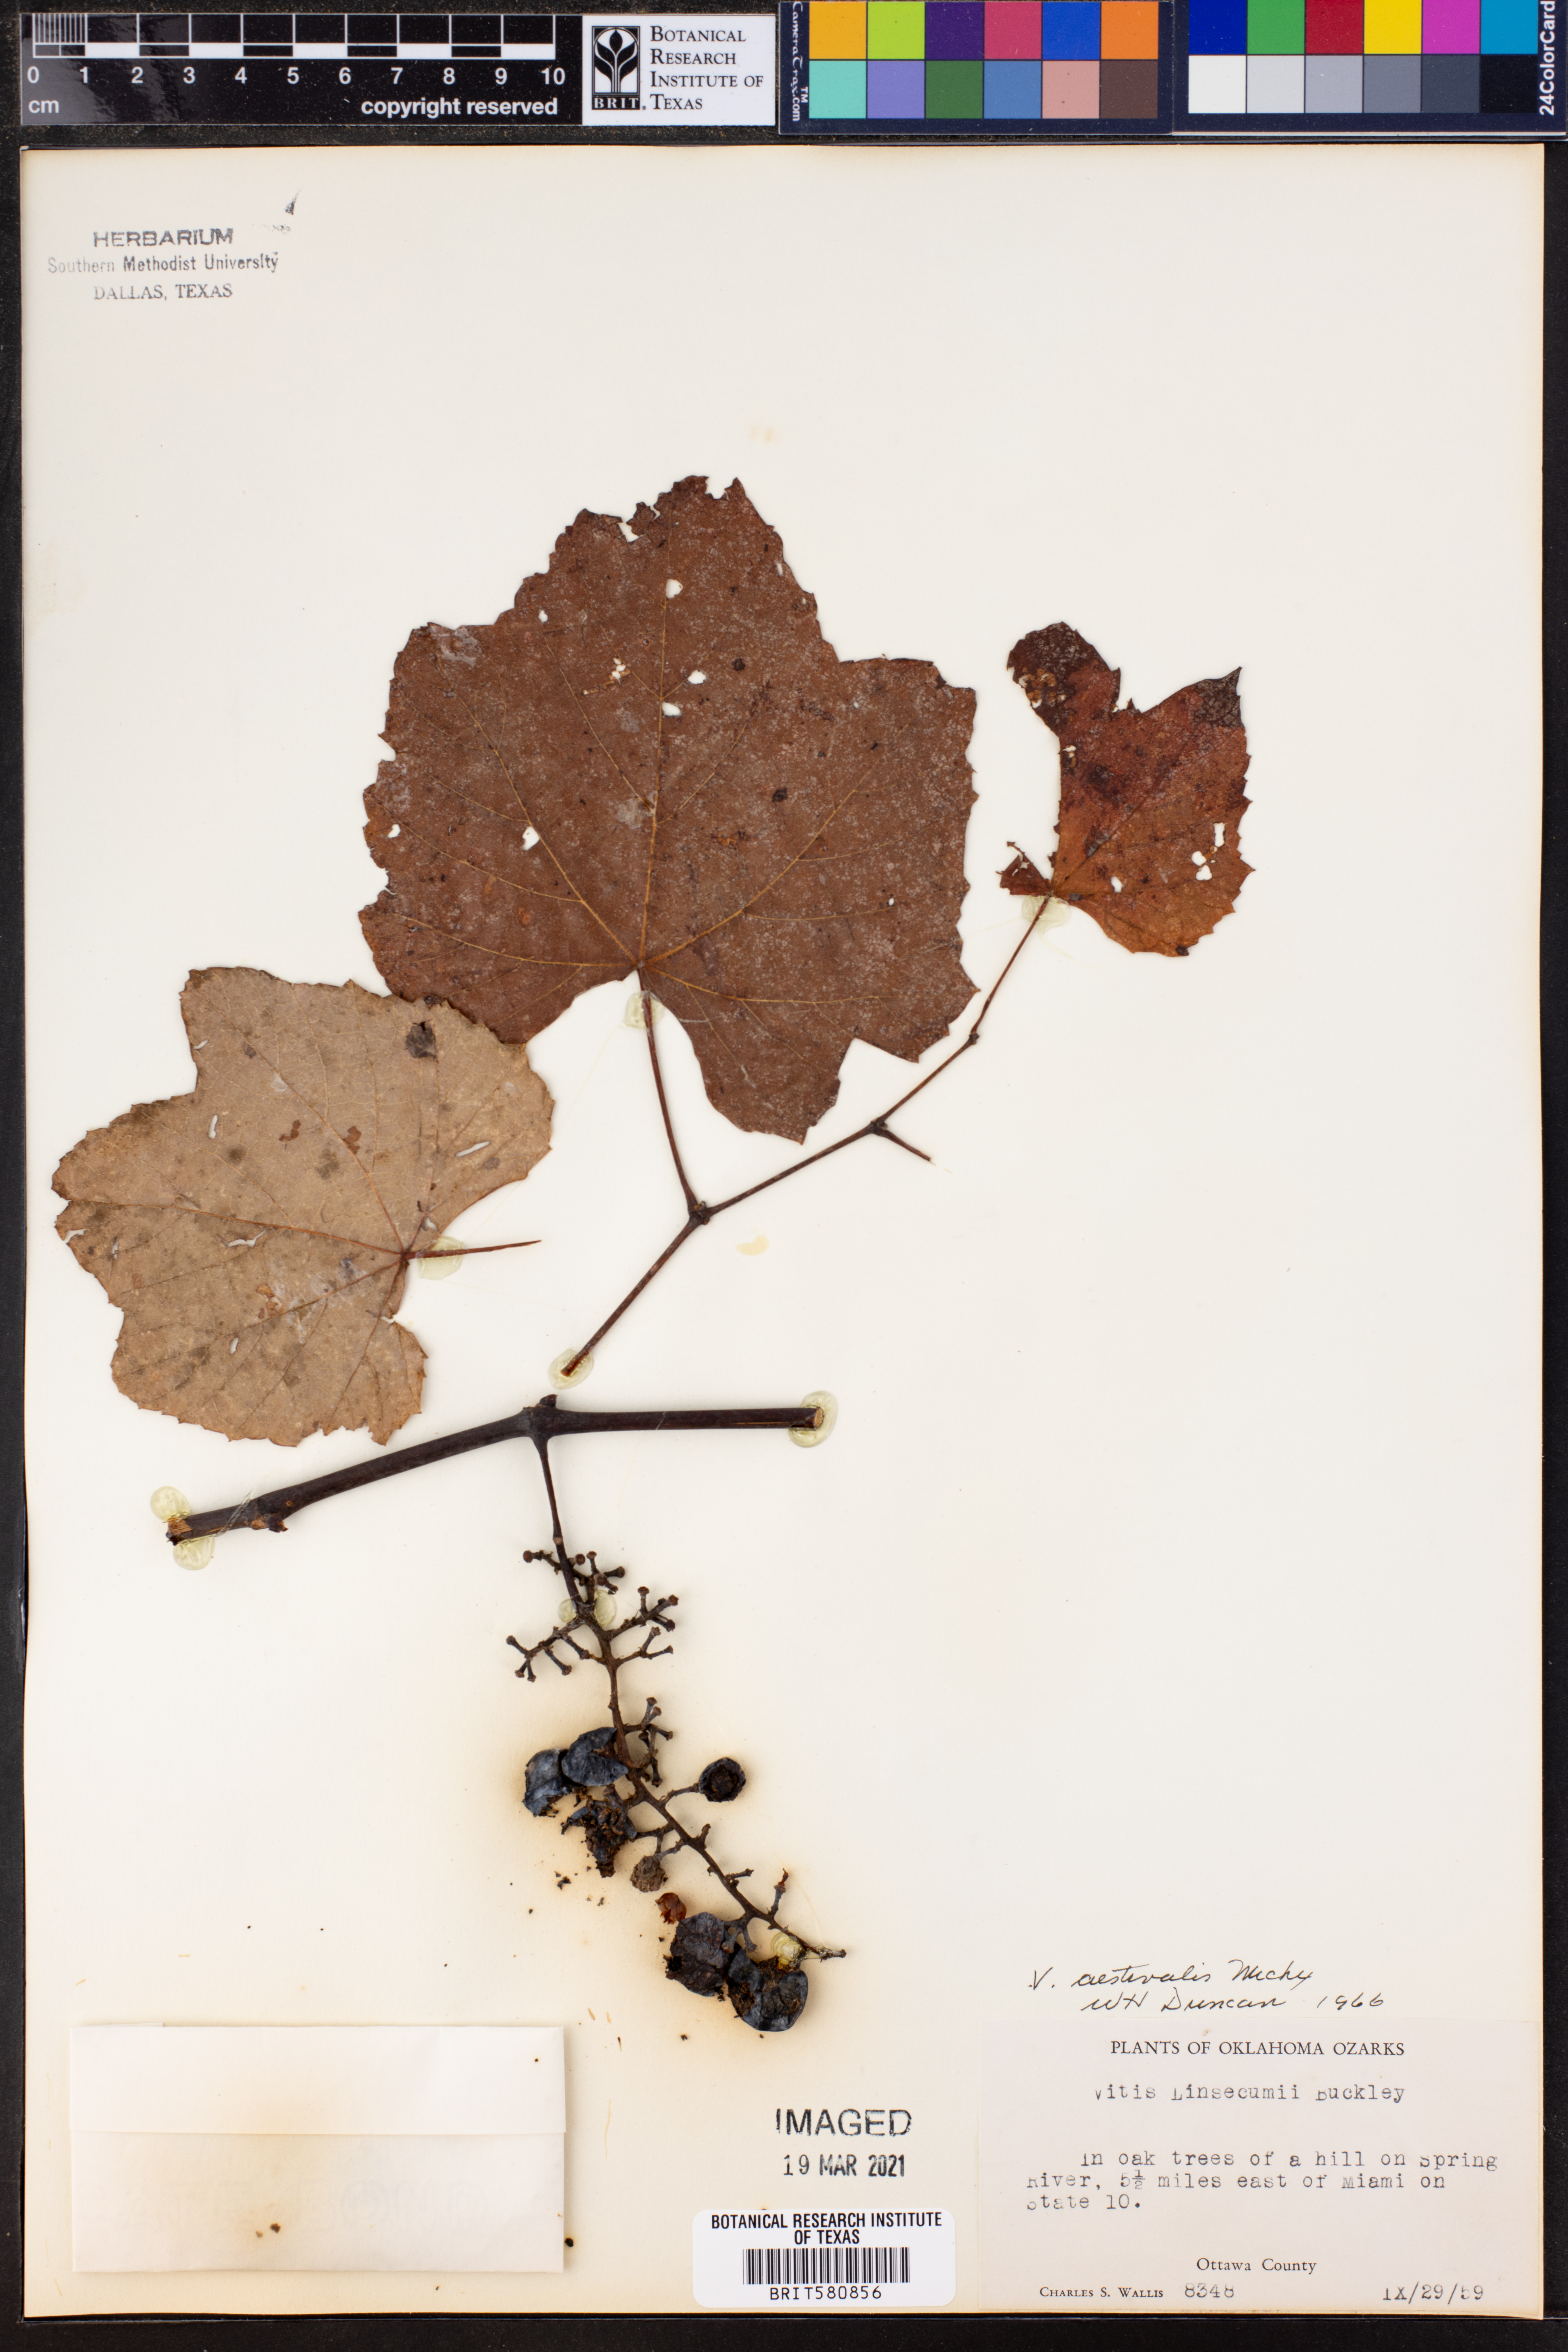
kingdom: Plantae
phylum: Tracheophyta
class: Magnoliopsida
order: Vitales
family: Vitaceae
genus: Vitis
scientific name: Vitis aestivalis
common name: Pigeon grape
